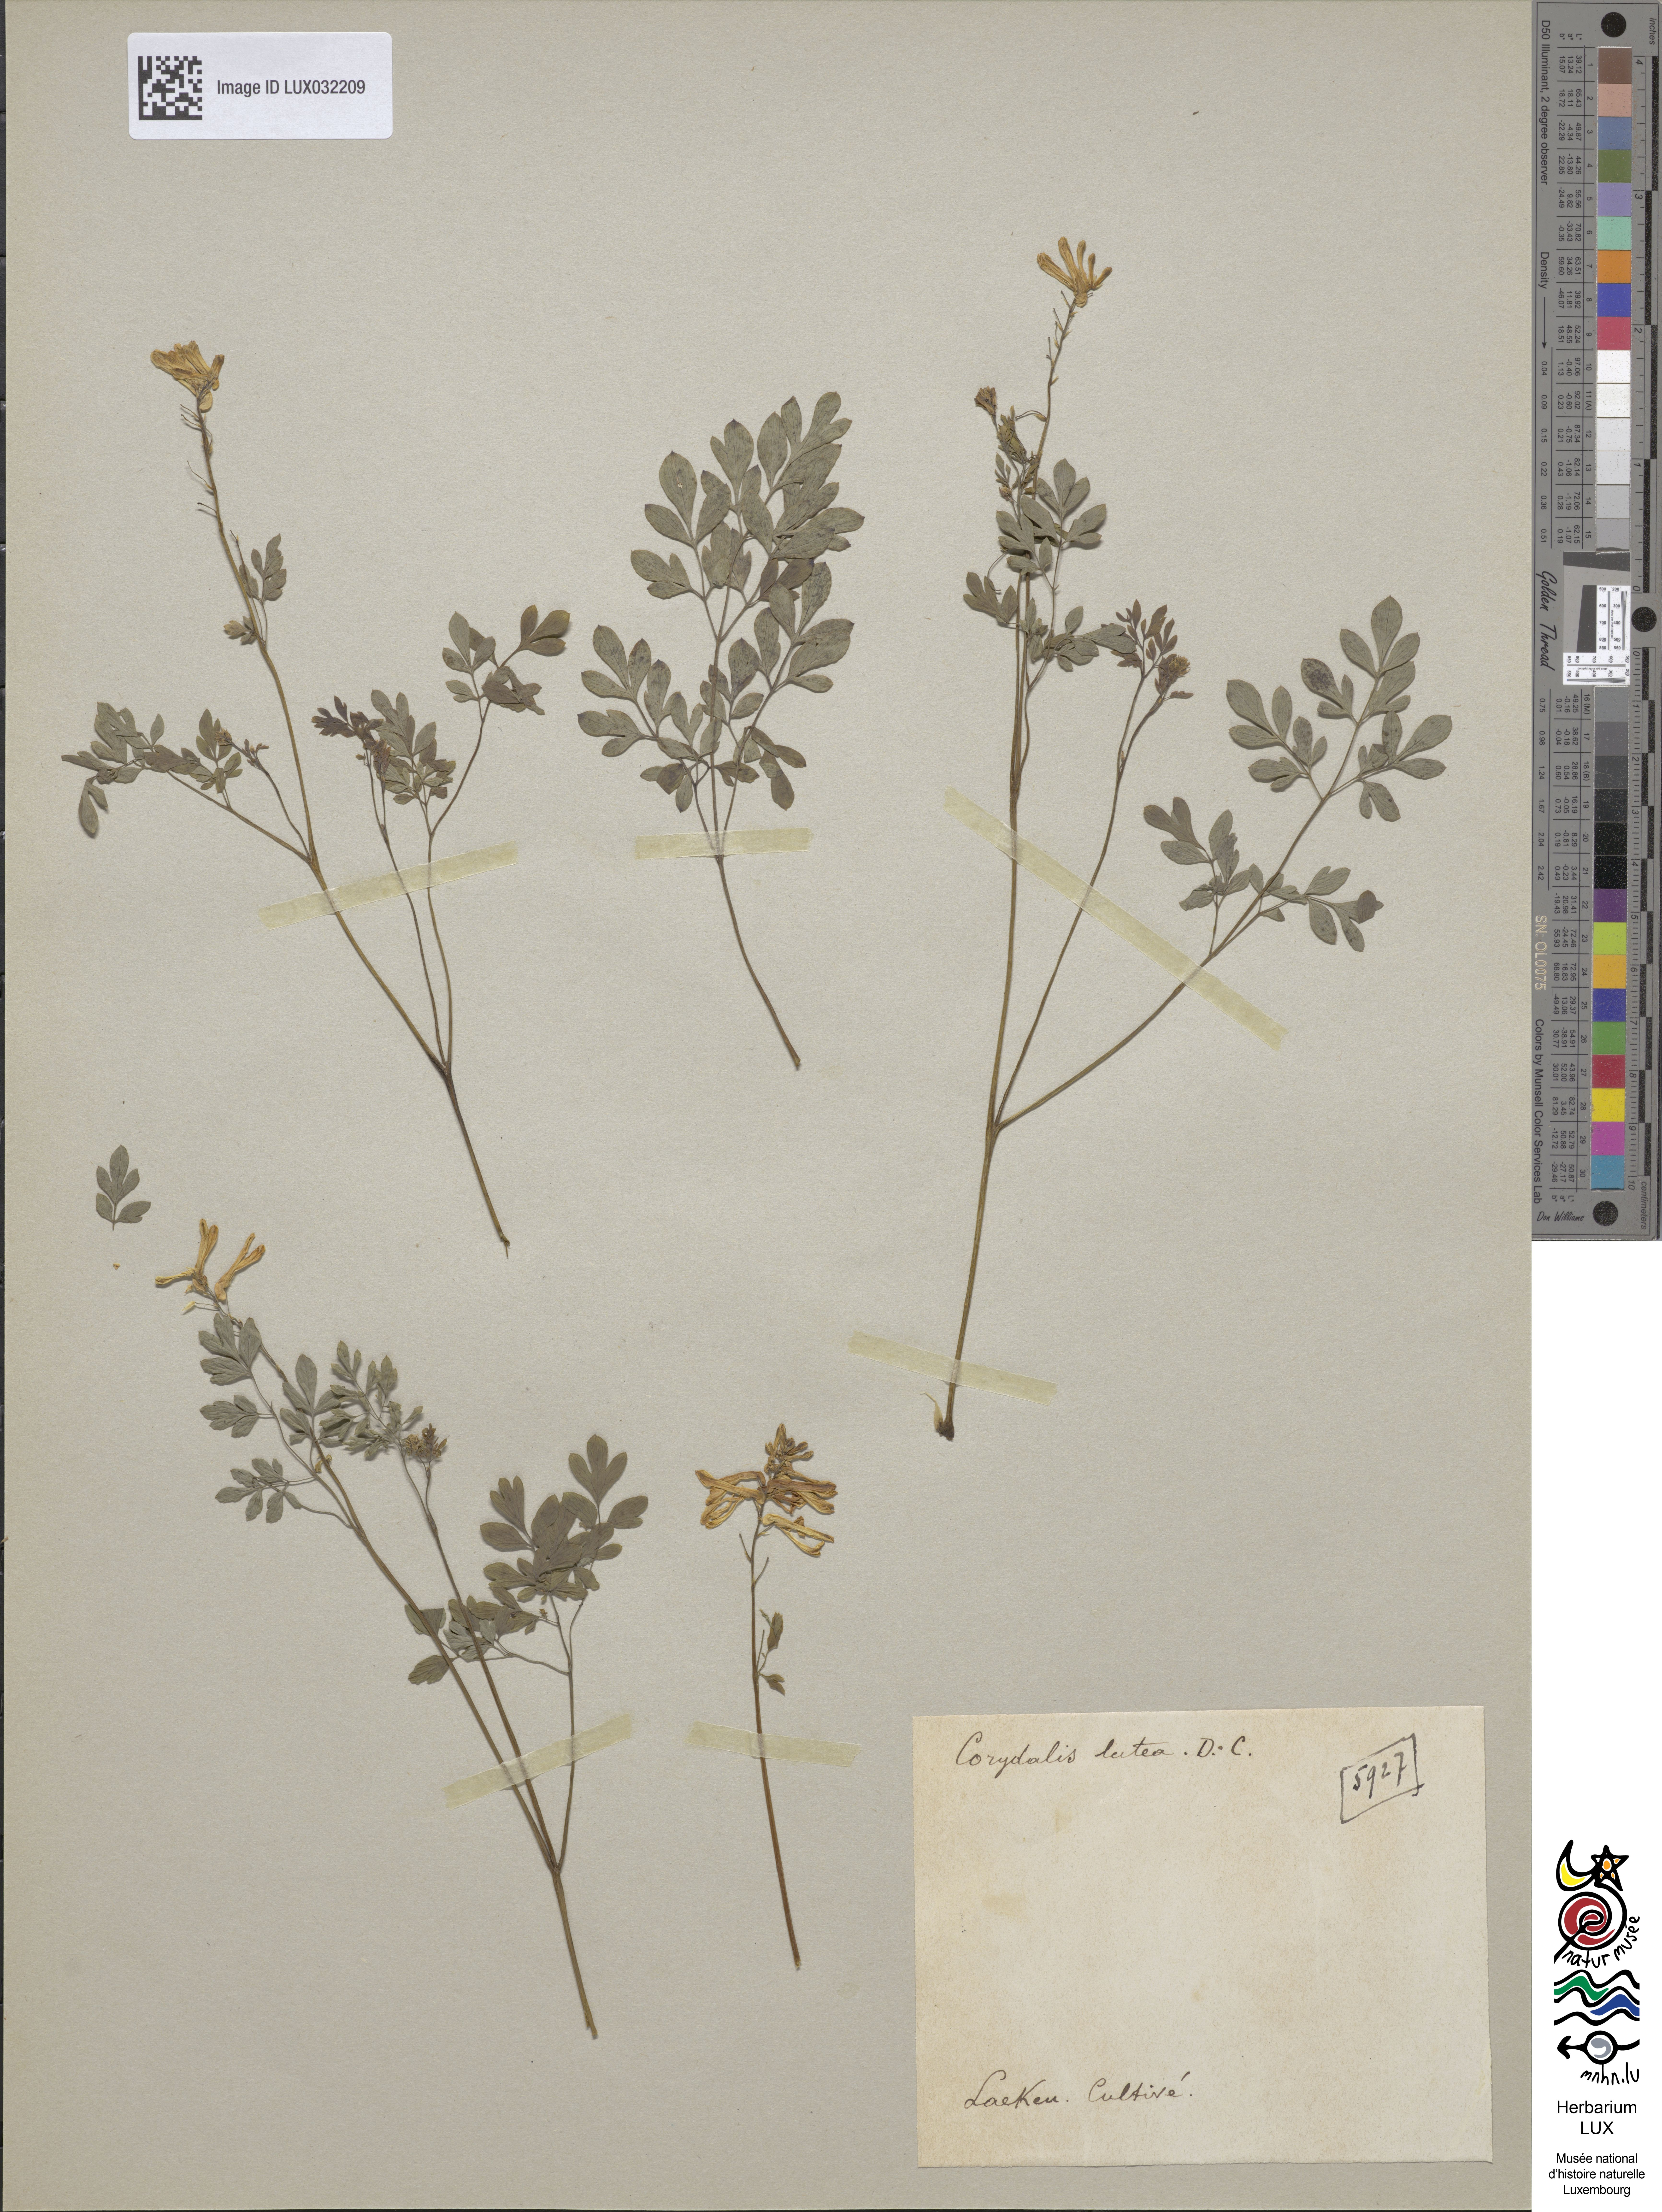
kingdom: Plantae
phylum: Tracheophyta
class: Magnoliopsida
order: Ranunculales
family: Papaveraceae
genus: Pseudofumaria
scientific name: Pseudofumaria lutea
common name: Yellow corydalis
